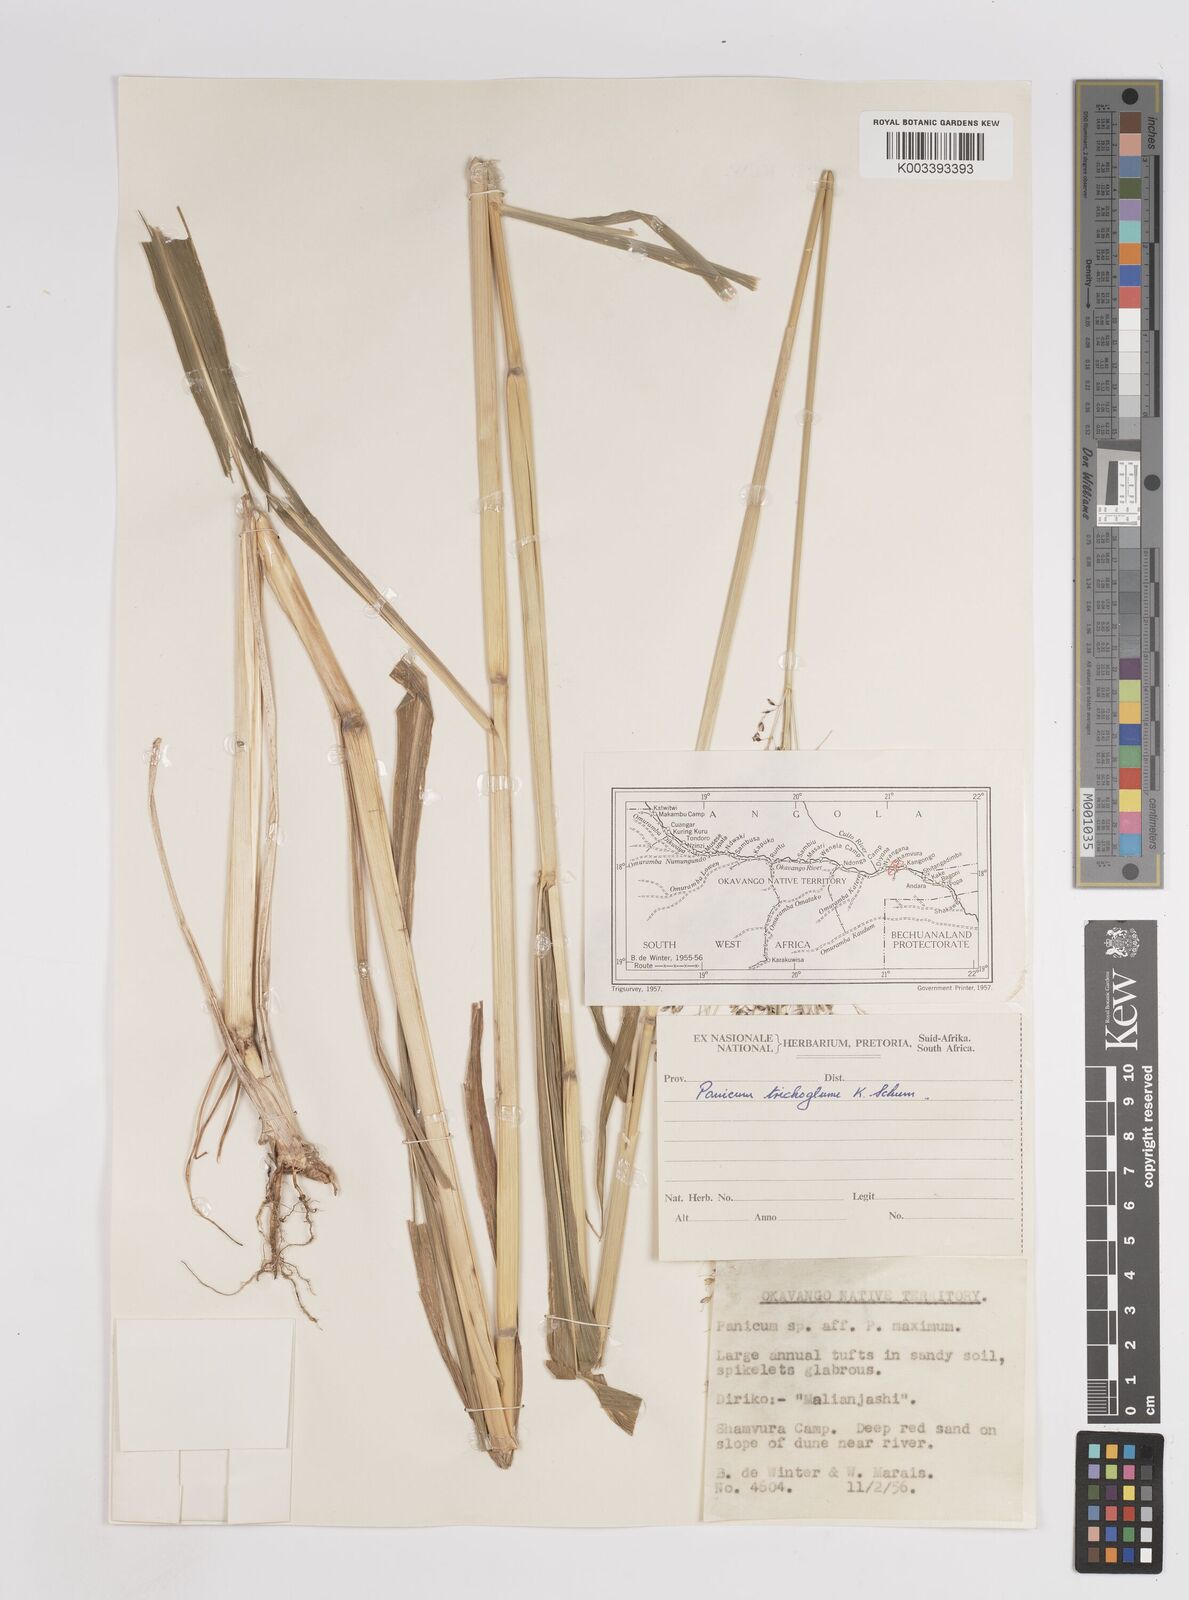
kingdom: Plantae
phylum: Tracheophyta
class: Liliopsida
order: Poales
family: Poaceae
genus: Megathyrsus
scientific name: Megathyrsus maximus
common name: Guineagrass
